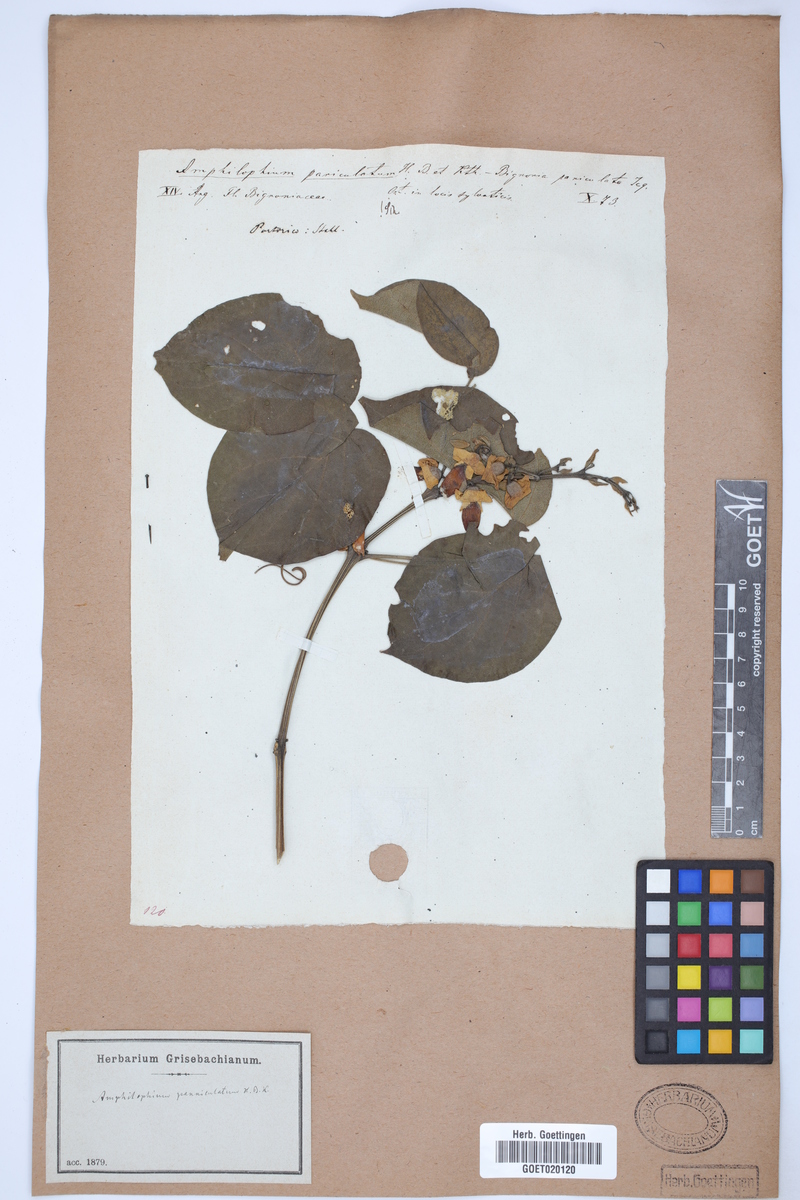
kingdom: Plantae
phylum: Tracheophyta
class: Magnoliopsida
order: Lamiales
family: Bignoniaceae
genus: Amphilophium
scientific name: Amphilophium paniculatum
